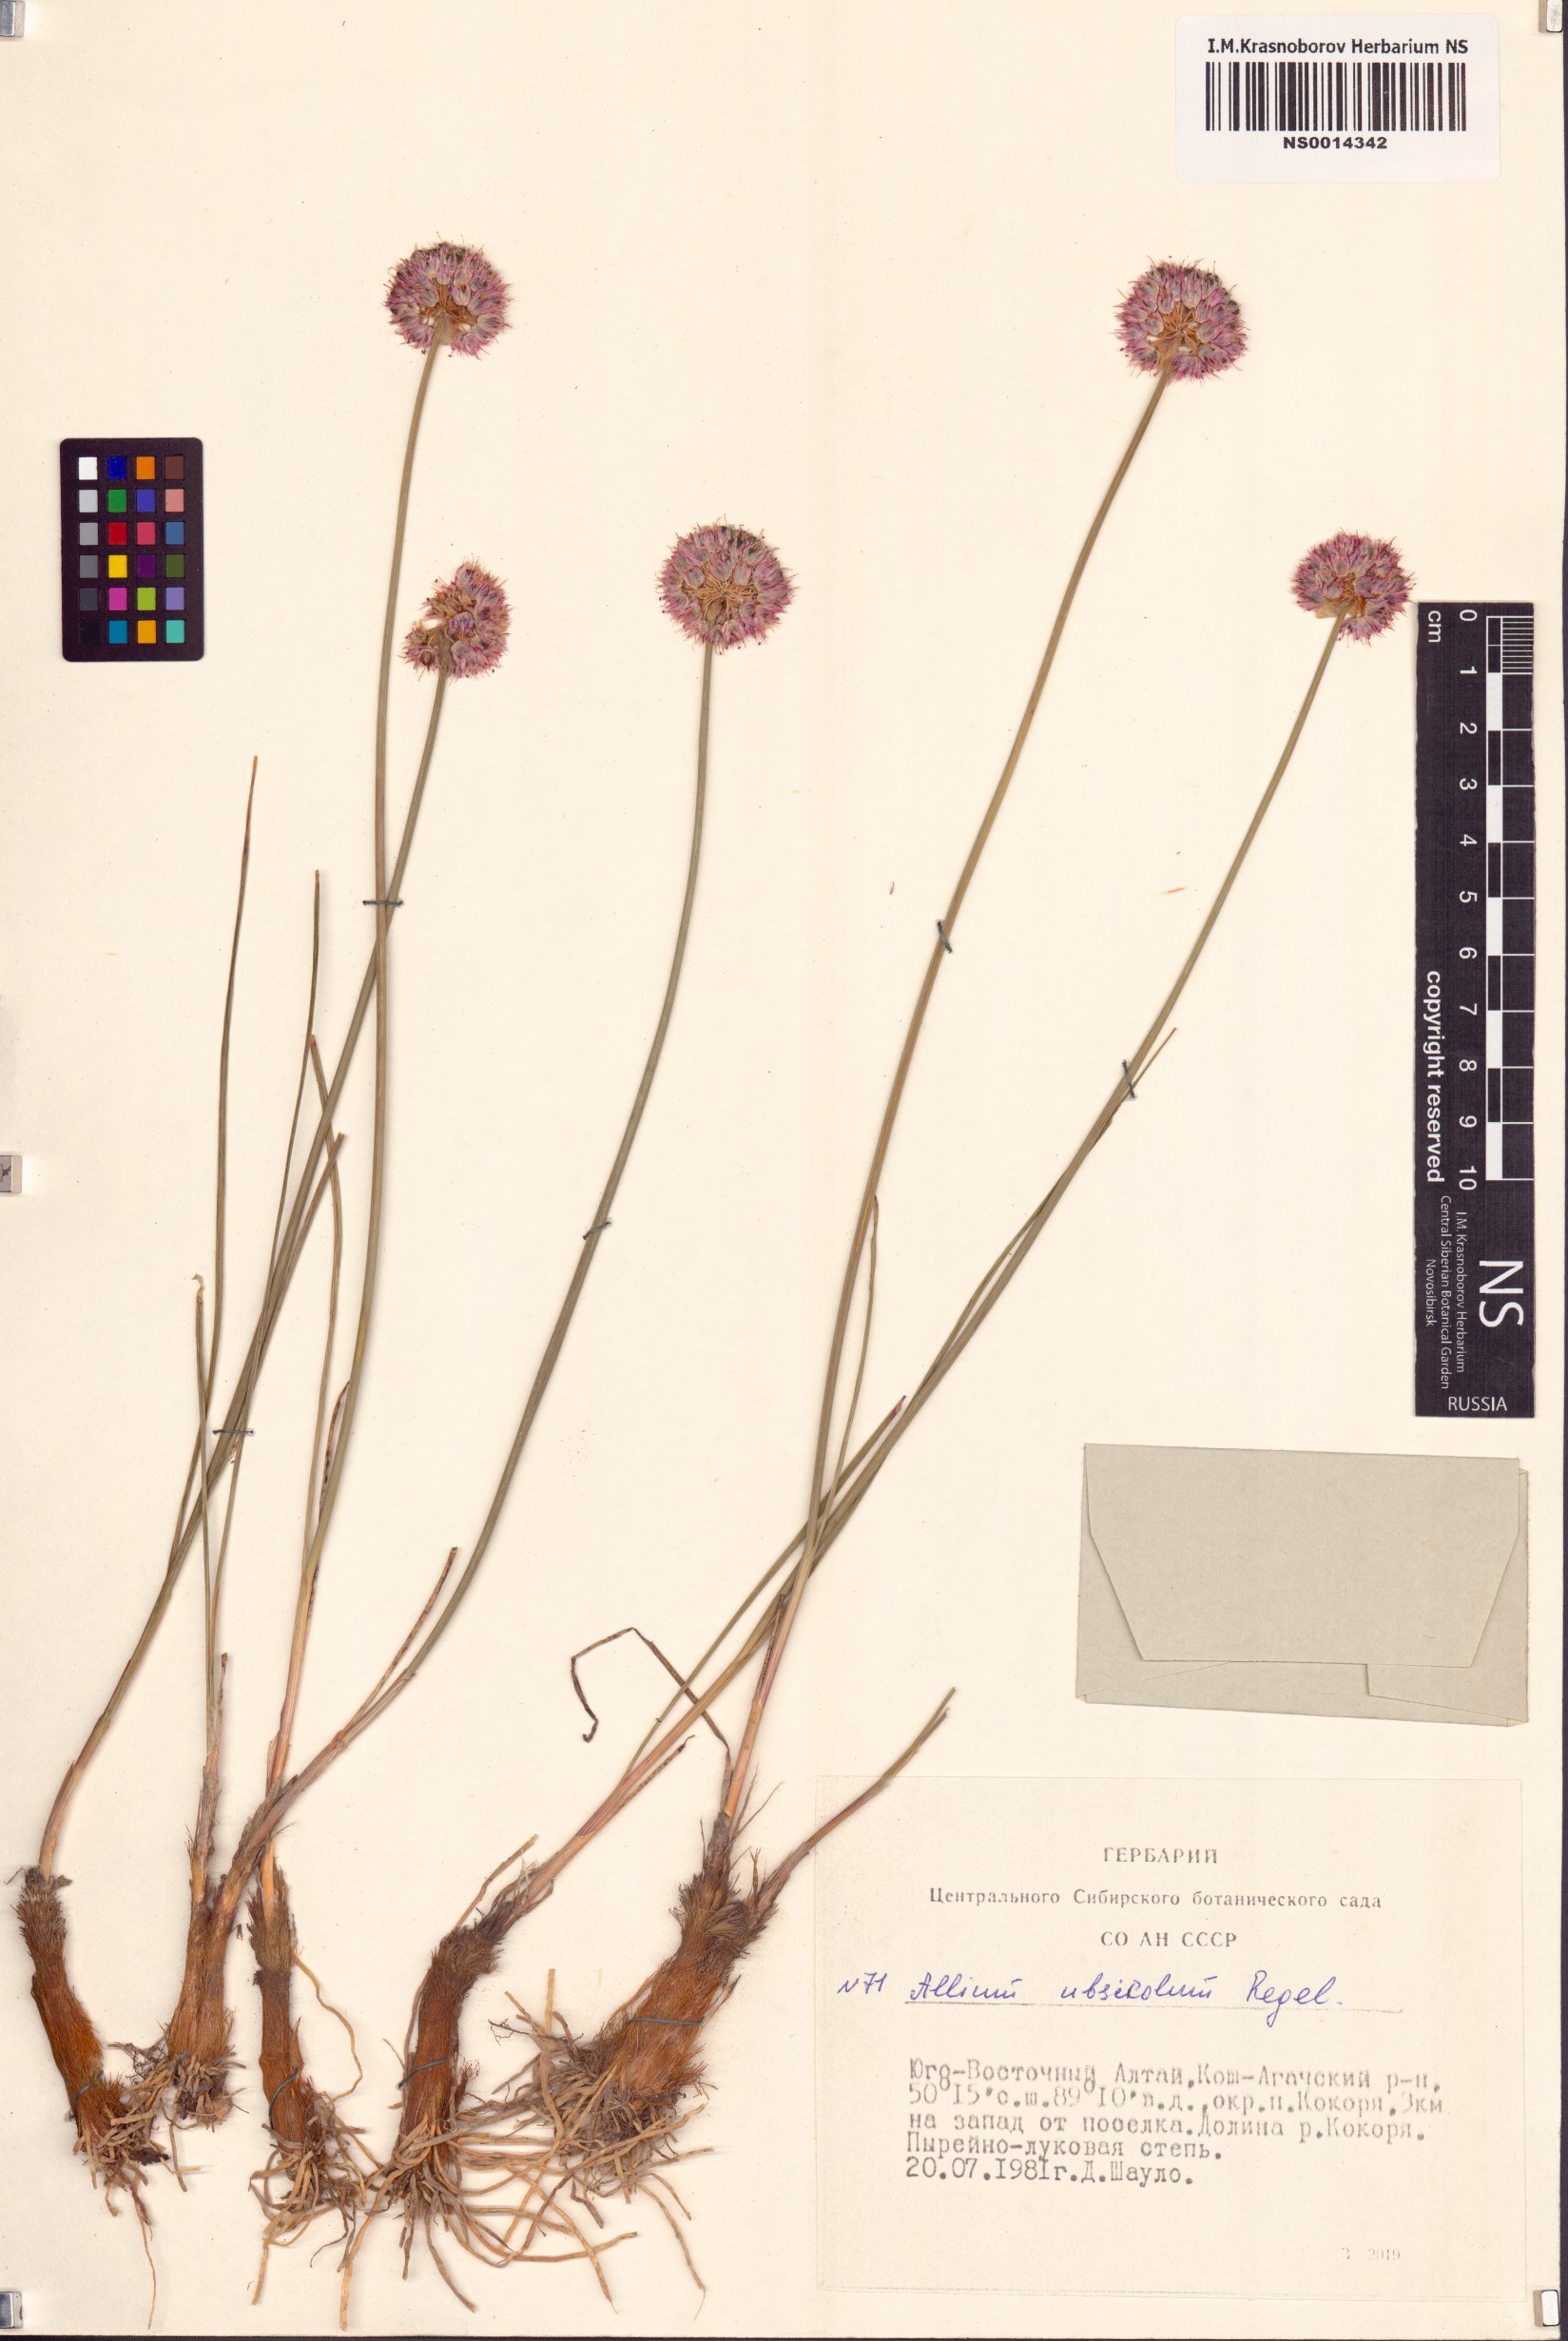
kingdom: Plantae
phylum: Tracheophyta
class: Liliopsida
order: Asparagales
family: Amaryllidaceae
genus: Allium
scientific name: Allium ubsicola
